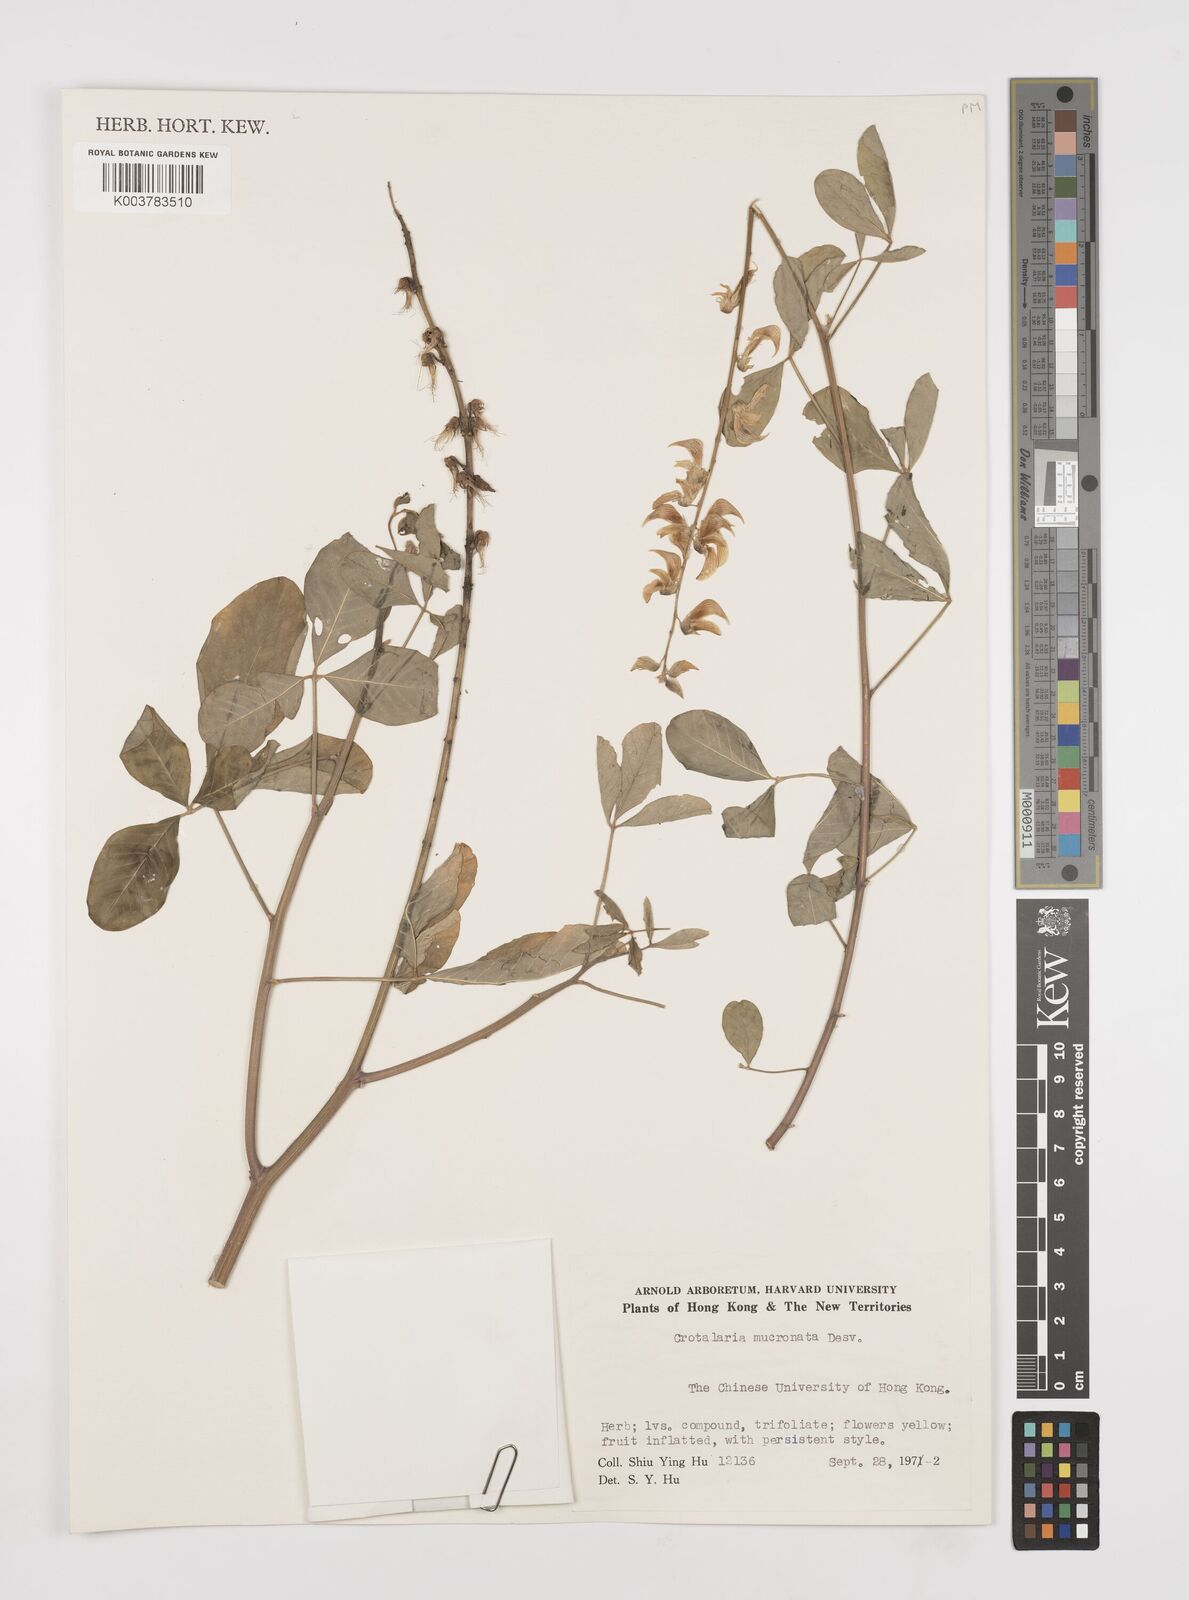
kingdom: Plantae
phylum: Tracheophyta
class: Magnoliopsida
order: Fabales
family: Fabaceae
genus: Crotalaria
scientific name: Crotalaria pallida
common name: Smooth rattlebox
